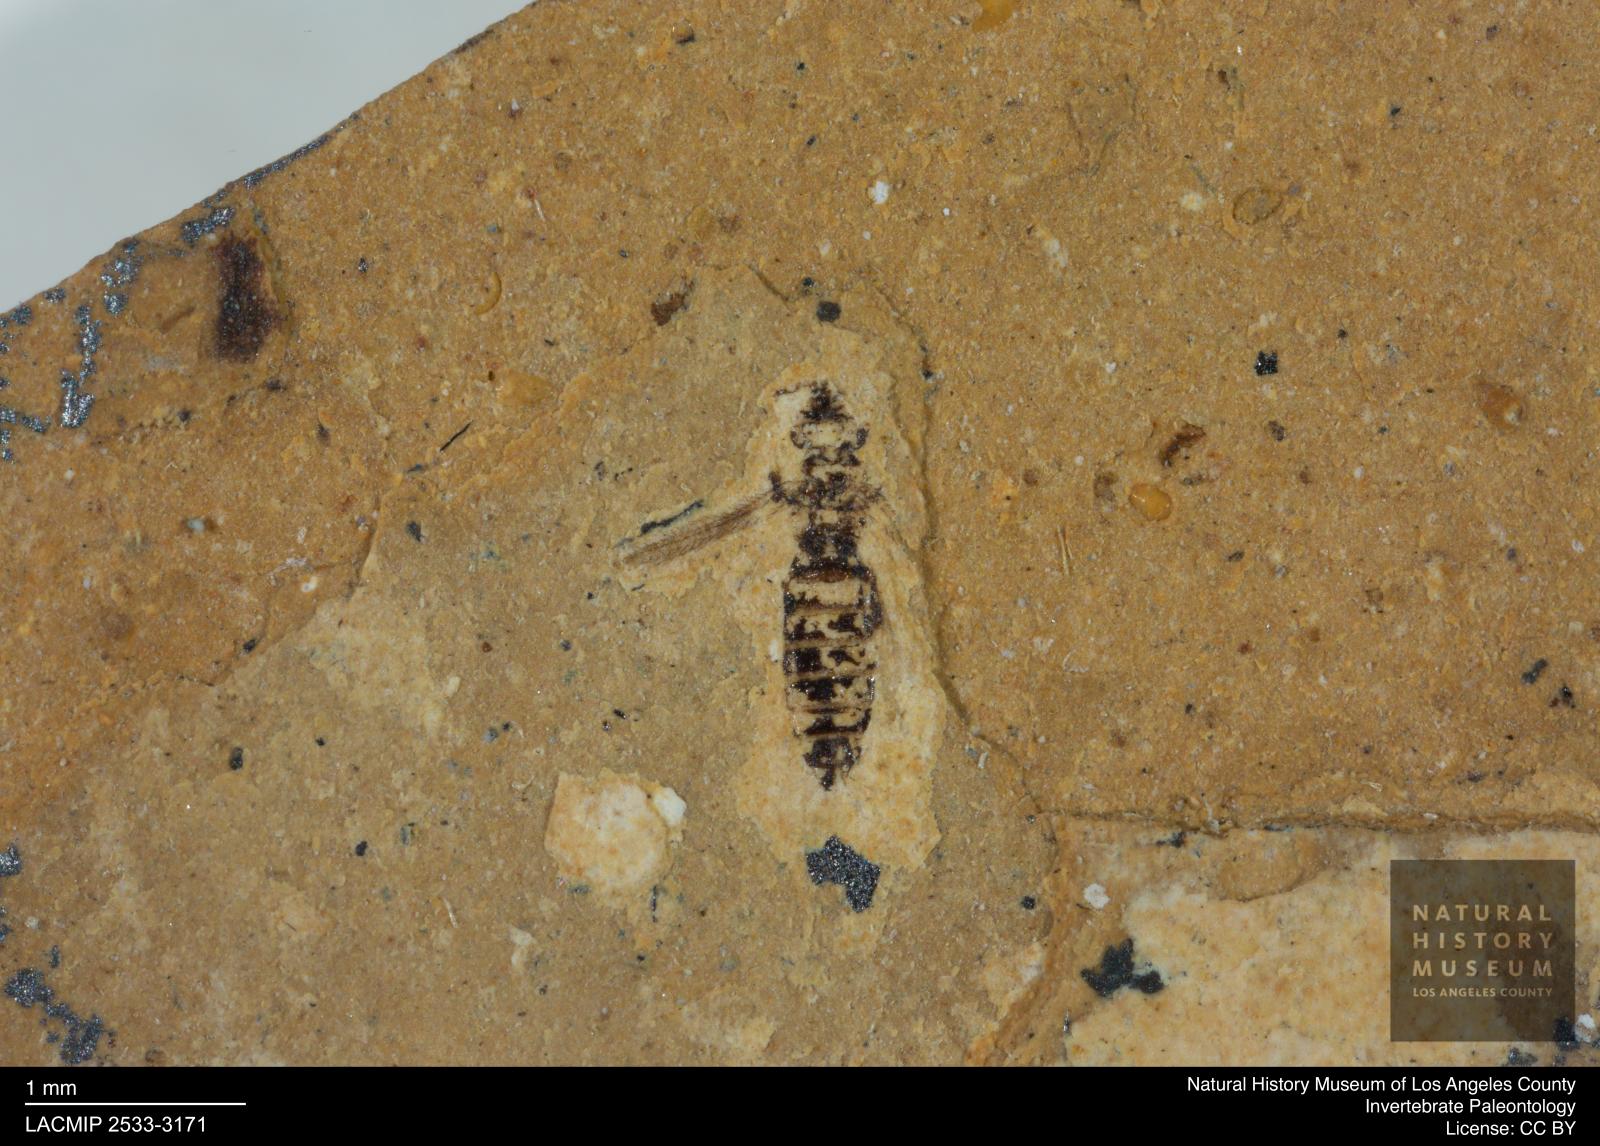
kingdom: Animalia
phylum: Arthropoda
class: Insecta
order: Thysanoptera
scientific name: Thysanoptera
